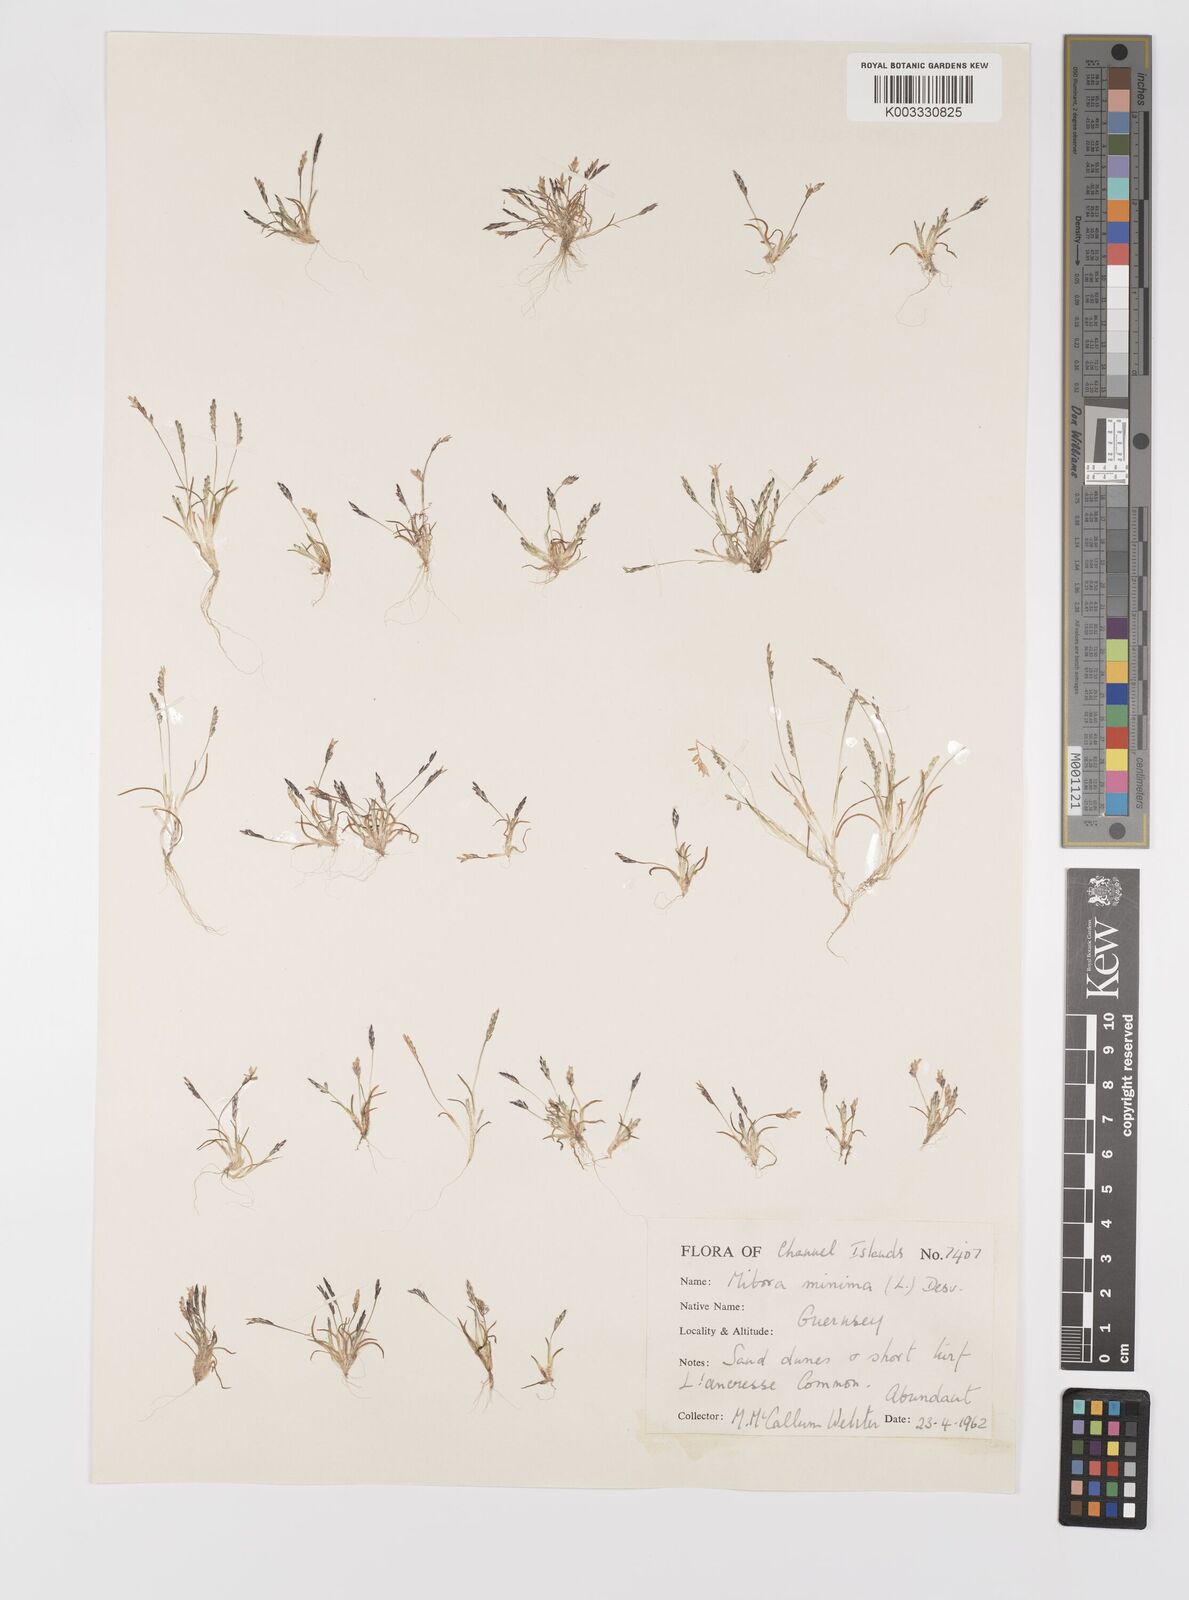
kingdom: Plantae
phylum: Tracheophyta
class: Liliopsida
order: Poales
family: Poaceae
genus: Mibora
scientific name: Mibora minima
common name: Early sand-grass
